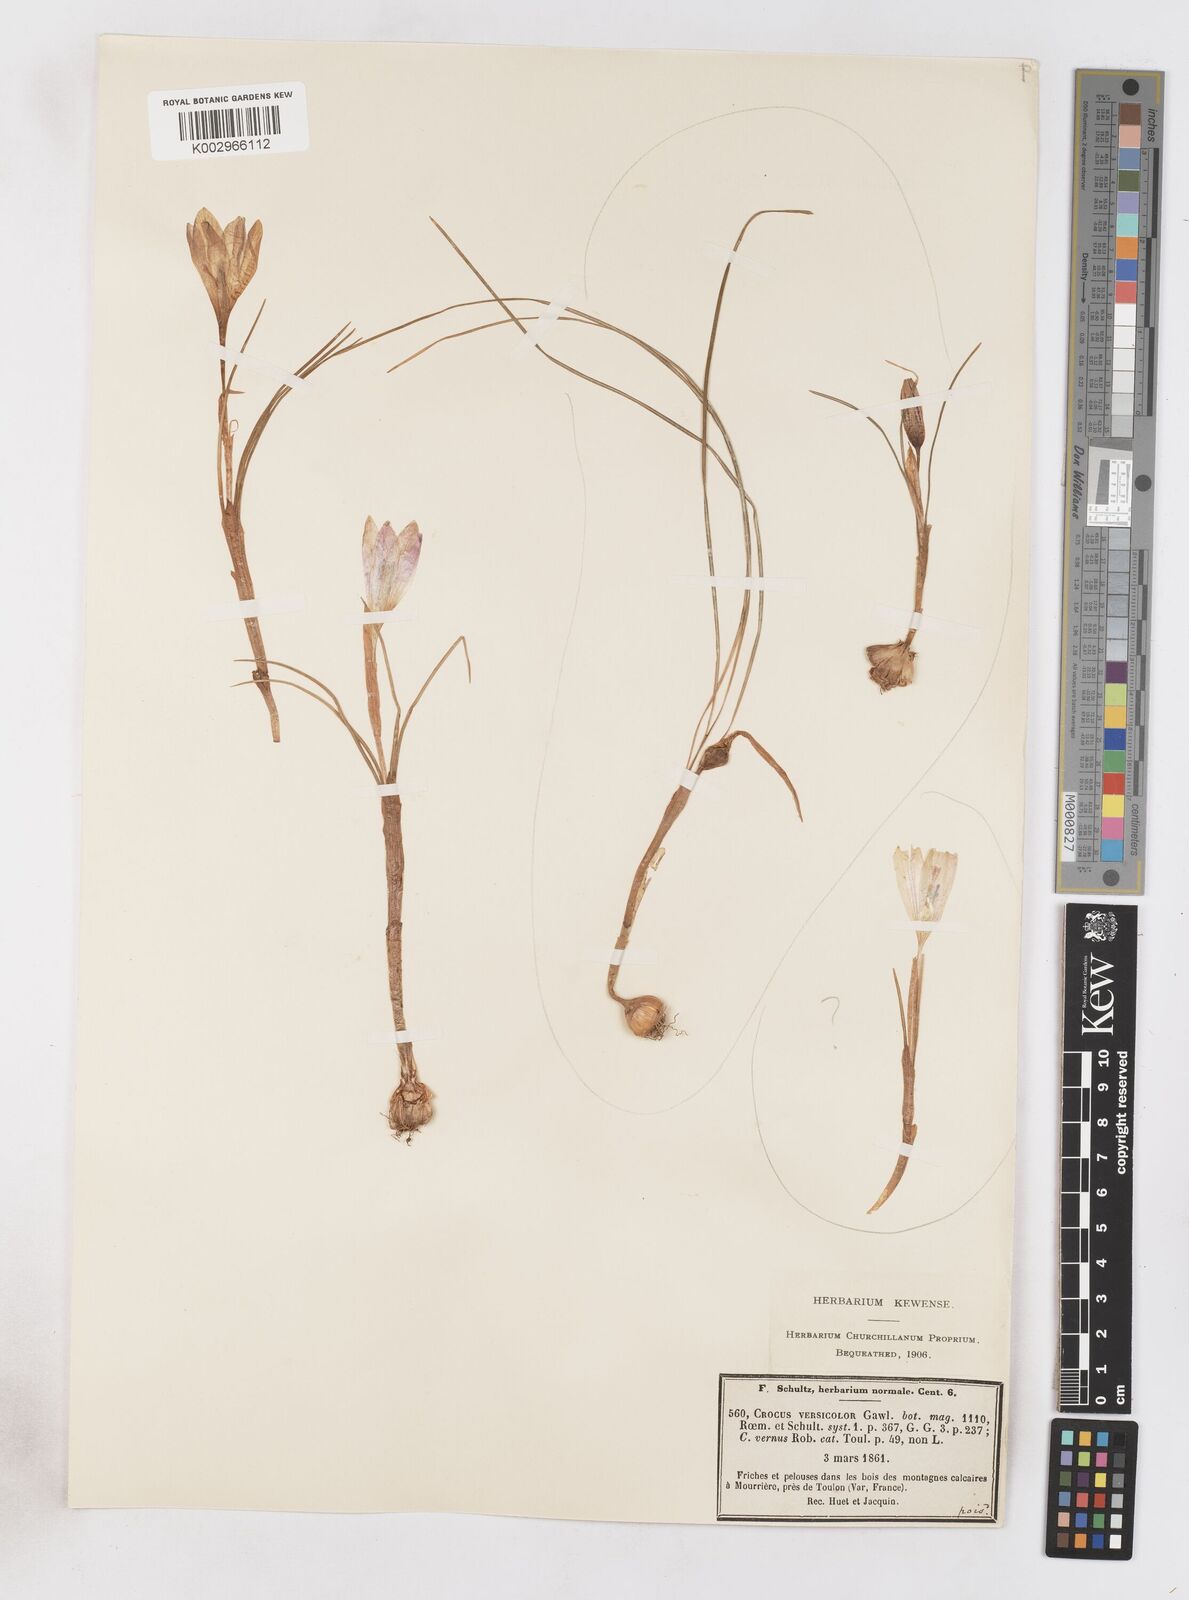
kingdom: Plantae
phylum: Tracheophyta
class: Liliopsida
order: Asparagales
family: Iridaceae
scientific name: Iridaceae
